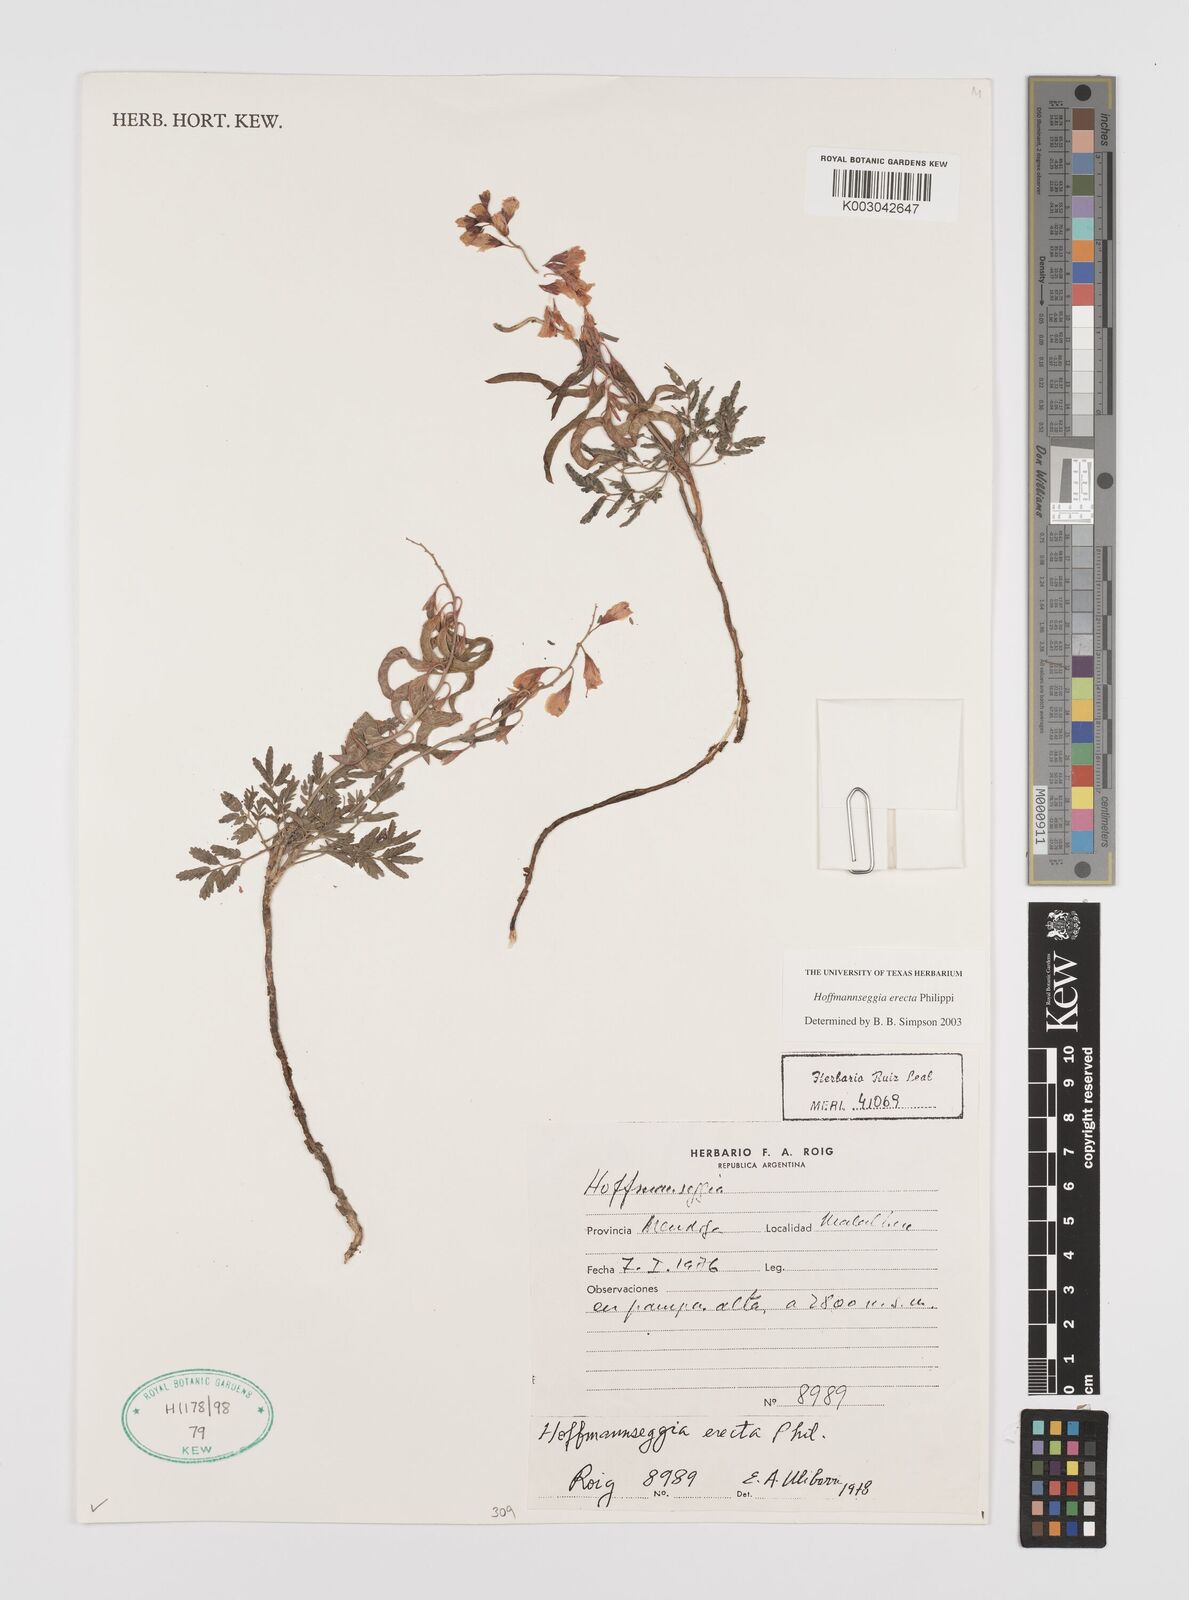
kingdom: Plantae
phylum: Tracheophyta
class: Magnoliopsida
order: Fabales
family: Fabaceae
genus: Hoffmannseggia
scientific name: Hoffmannseggia erecta
